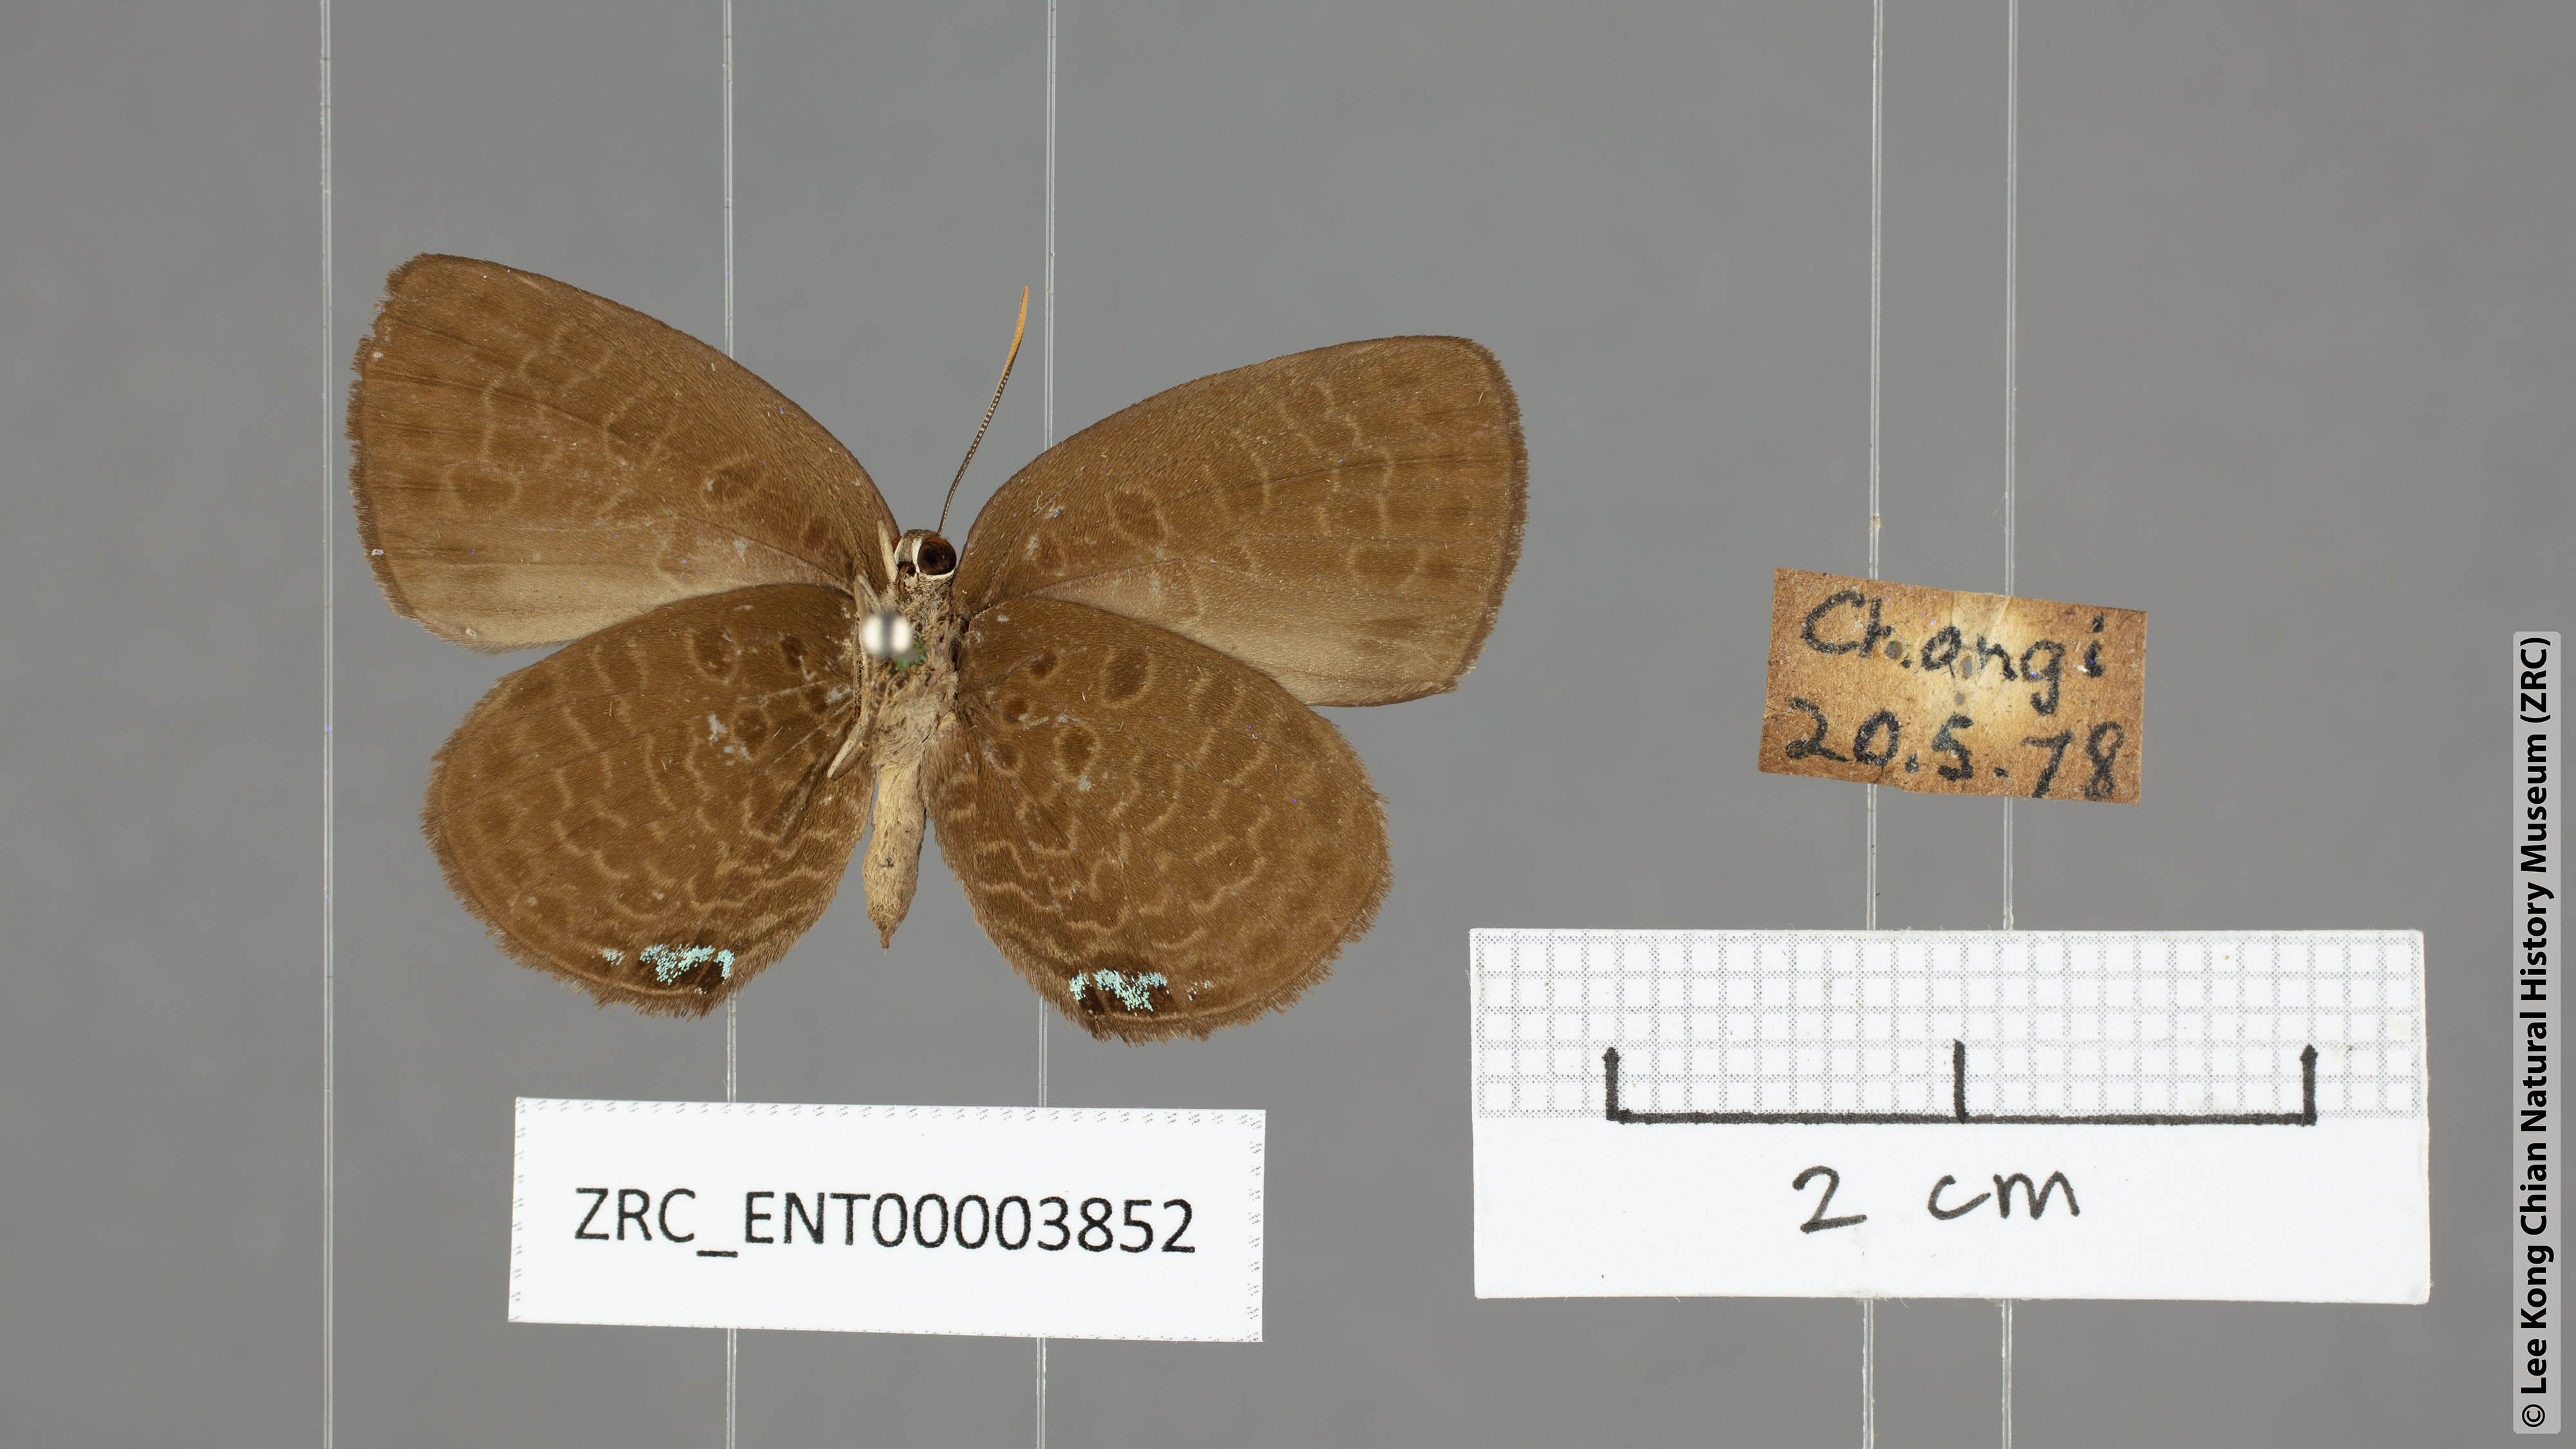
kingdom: Animalia
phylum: Arthropoda
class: Insecta
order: Lepidoptera
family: Lycaenidae
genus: Arhopala
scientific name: Arhopala antimuta
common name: Small tailless oakblue
